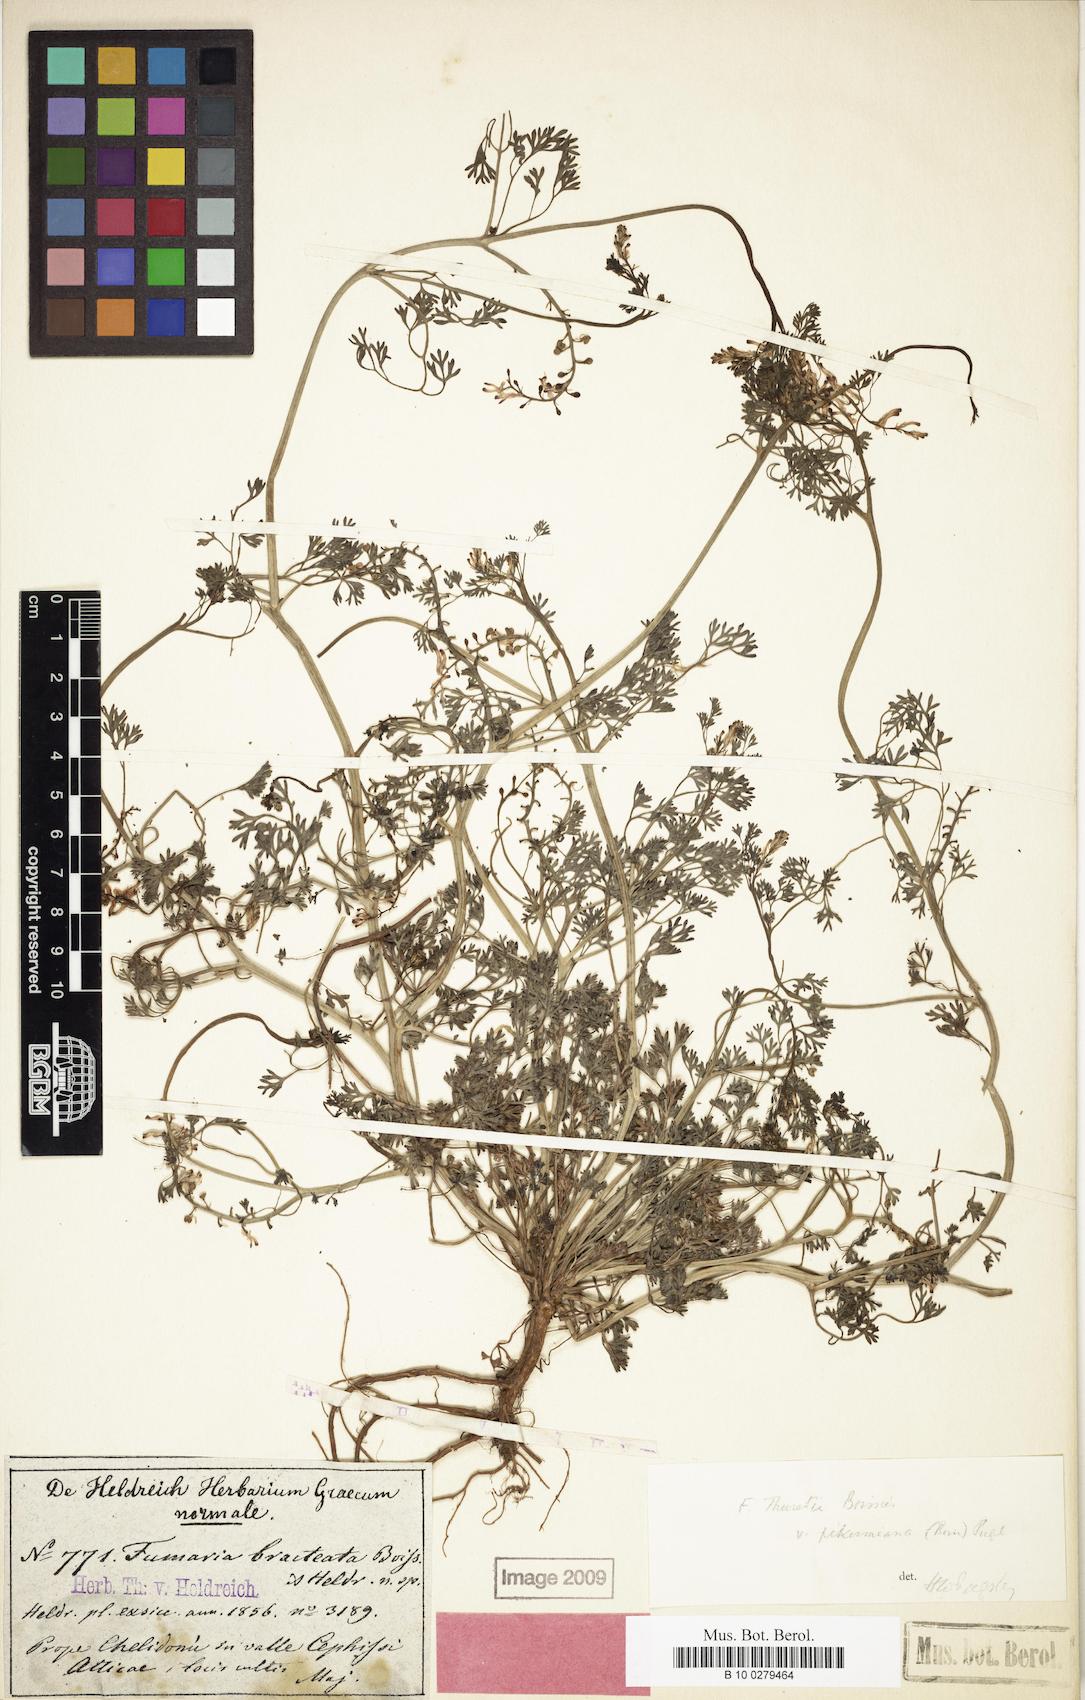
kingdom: Plantae
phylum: Tracheophyta
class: Magnoliopsida
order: Ranunculales
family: Papaveraceae
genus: Fumaria
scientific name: Fumaria bracteata
